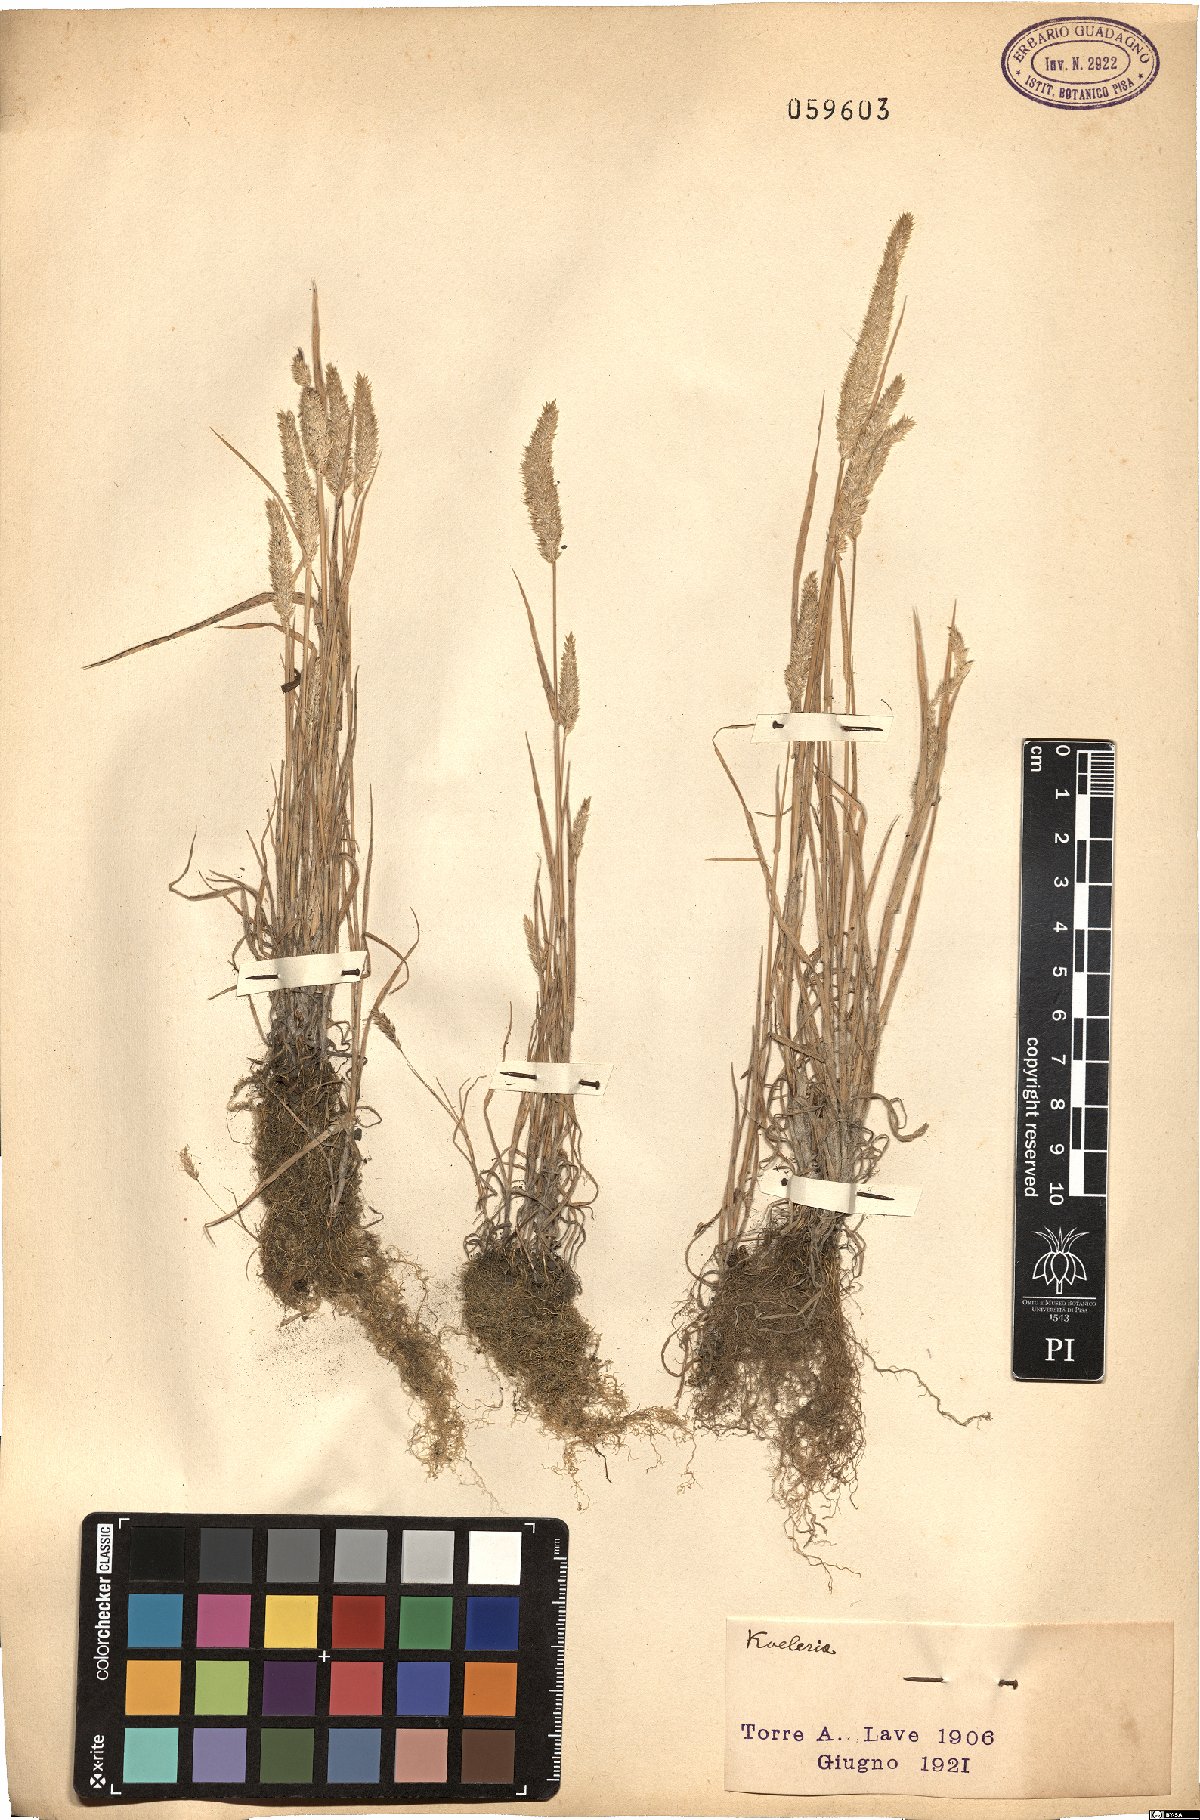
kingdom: Plantae
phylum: Tracheophyta
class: Liliopsida
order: Poales
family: Poaceae
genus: Koeleria
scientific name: Koeleria
